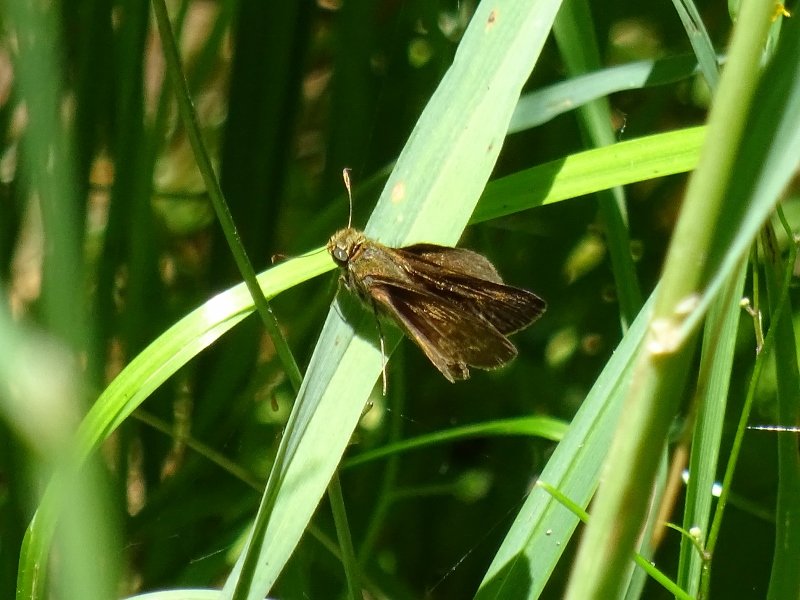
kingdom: Animalia
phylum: Arthropoda
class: Insecta
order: Lepidoptera
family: Hesperiidae
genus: Euphyes
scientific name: Euphyes vestris
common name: Dun Skipper
